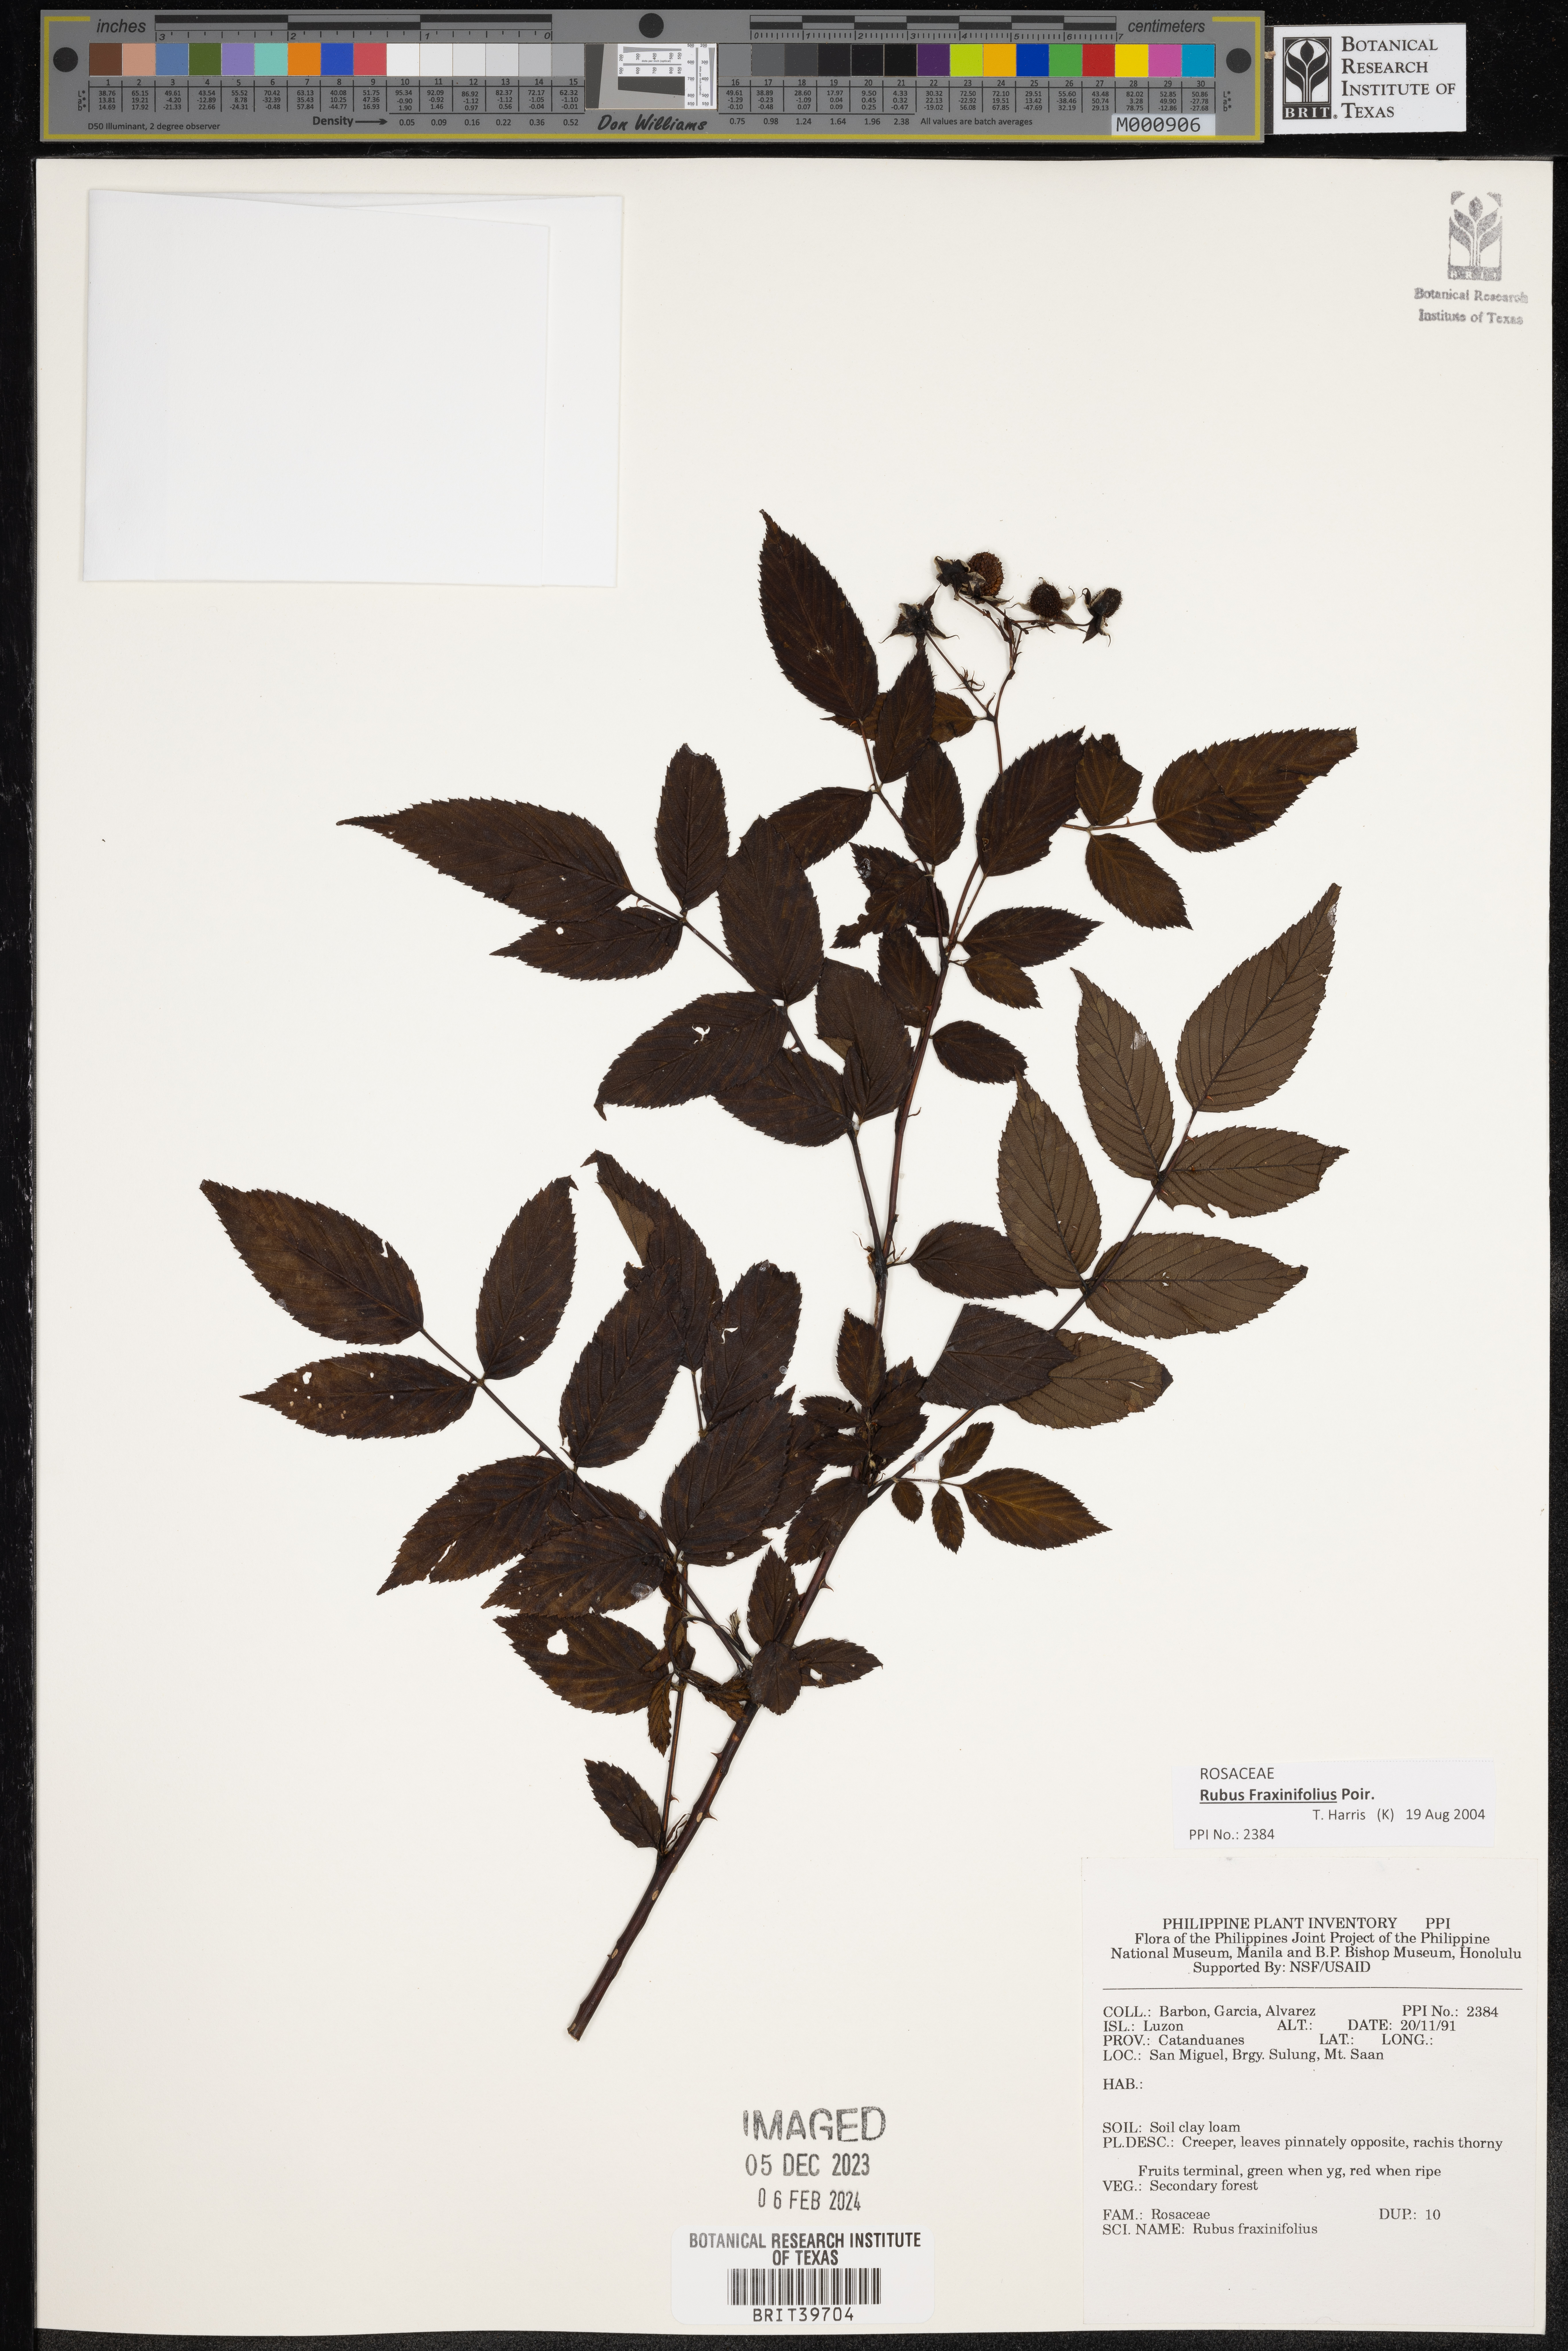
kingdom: Plantae
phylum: Tracheophyta
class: Magnoliopsida
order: Rosales
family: Rosaceae
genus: Rubus
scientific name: Rubus fraxinifolius
